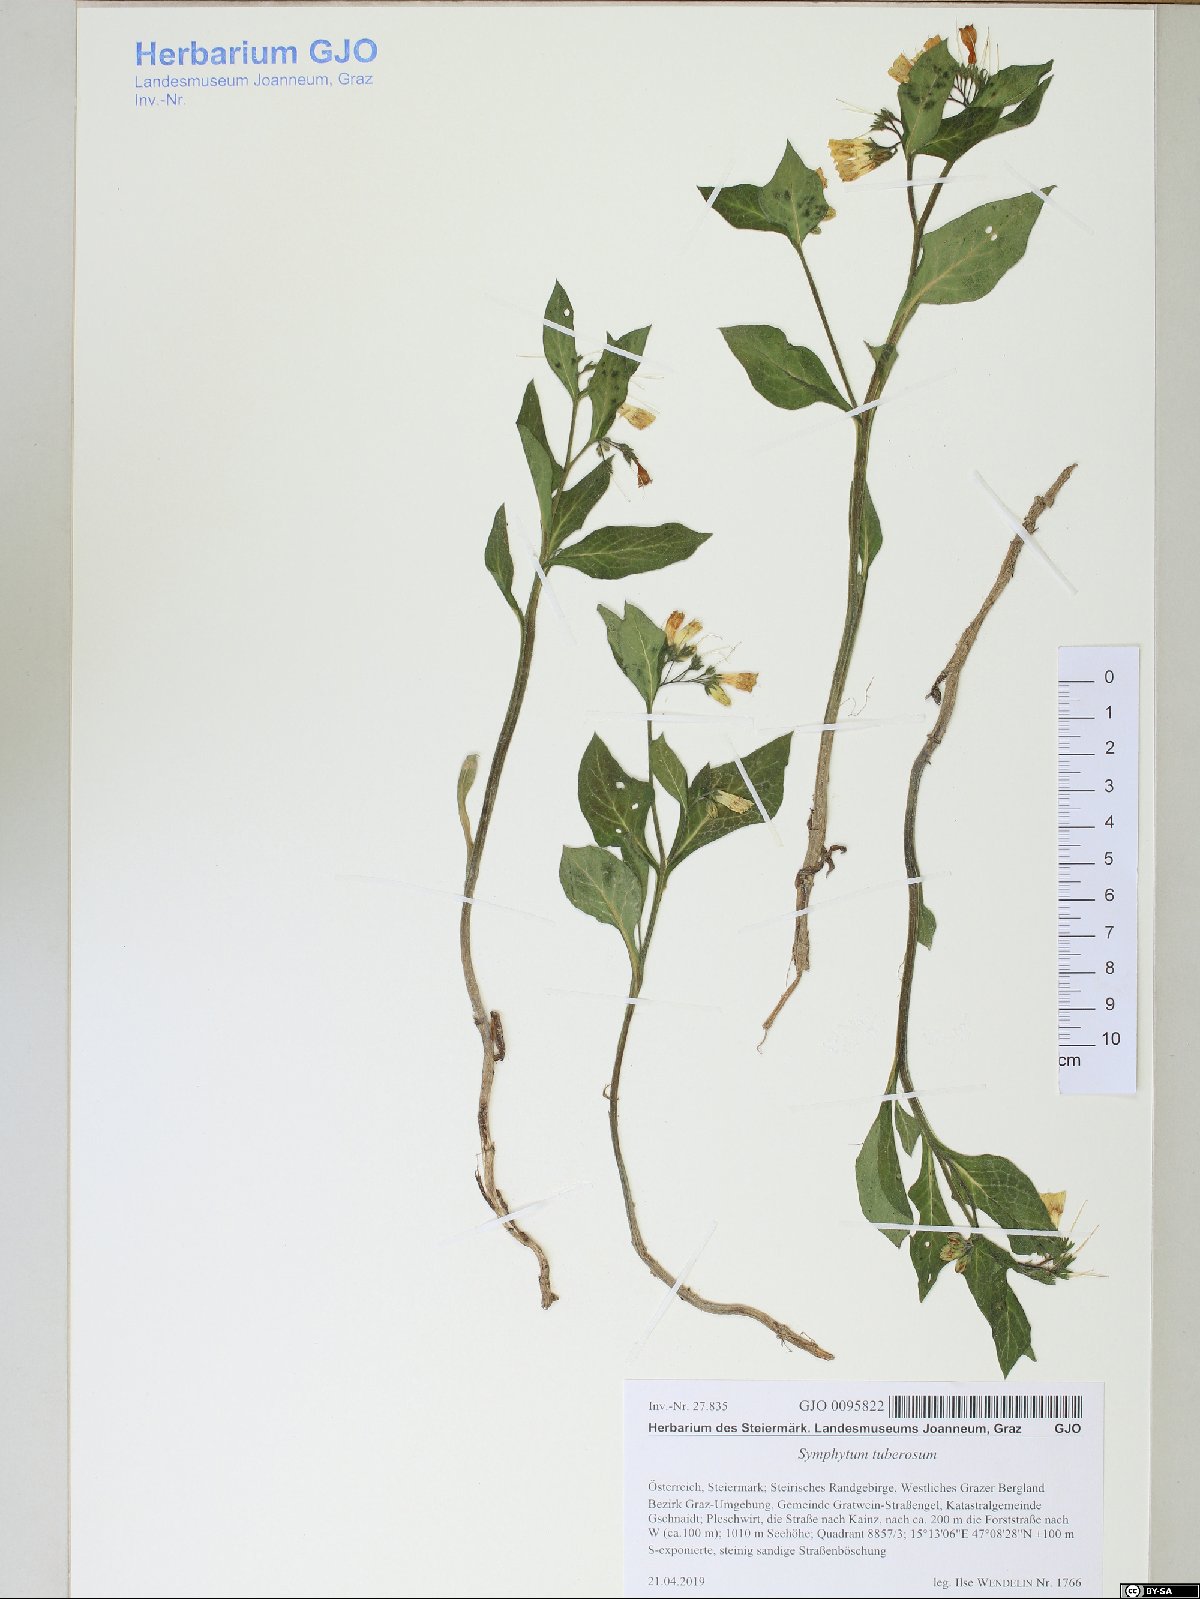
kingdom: Plantae
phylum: Tracheophyta
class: Magnoliopsida
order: Boraginales
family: Boraginaceae
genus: Symphytum
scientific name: Symphytum tuberosum
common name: Tuberous comfrey
